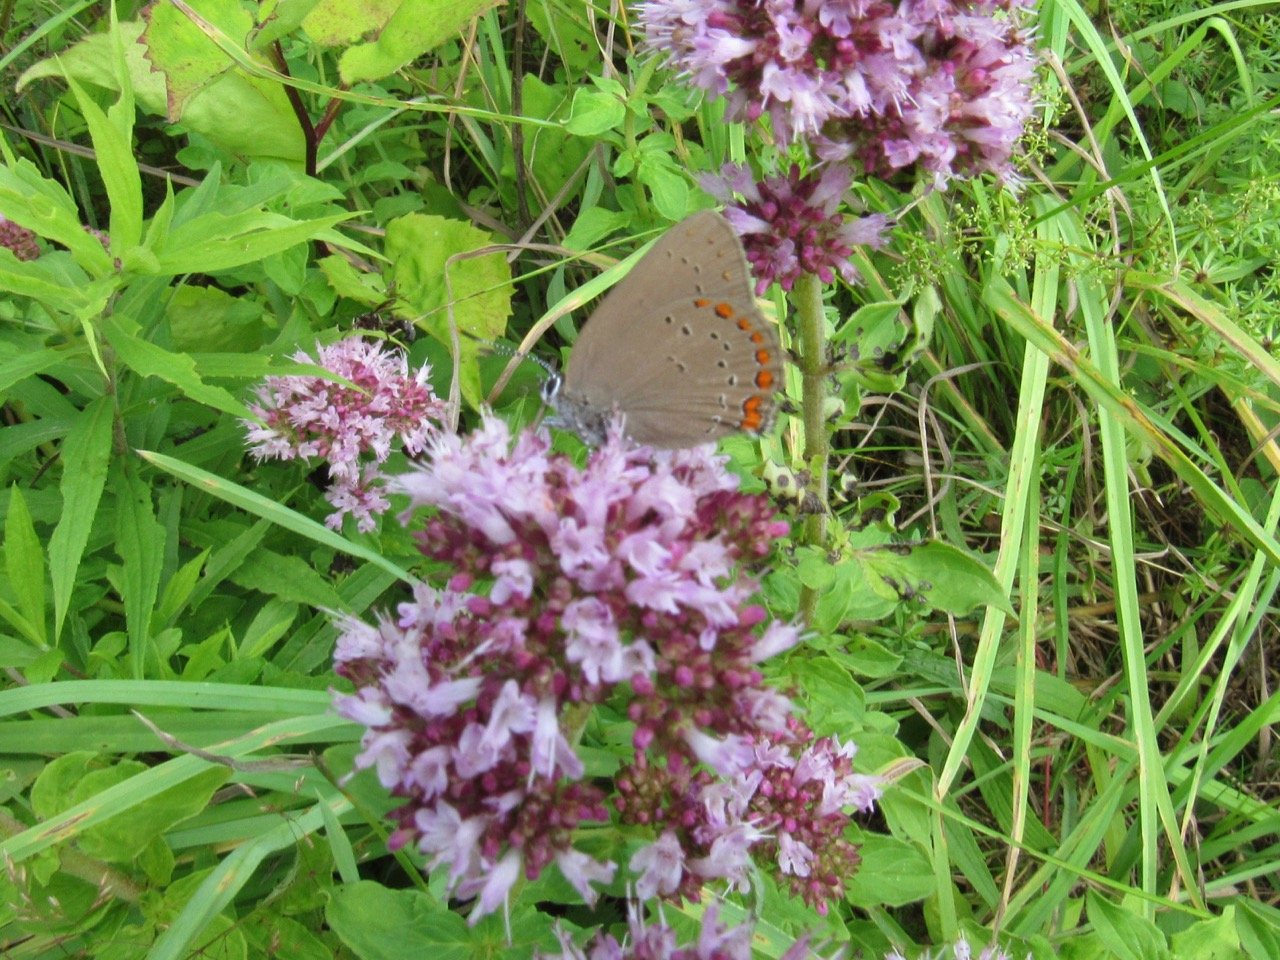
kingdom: Animalia
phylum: Arthropoda
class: Insecta
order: Lepidoptera
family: Lycaenidae
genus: Harkenclenus
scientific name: Harkenclenus titus
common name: Coral Hairstreak
